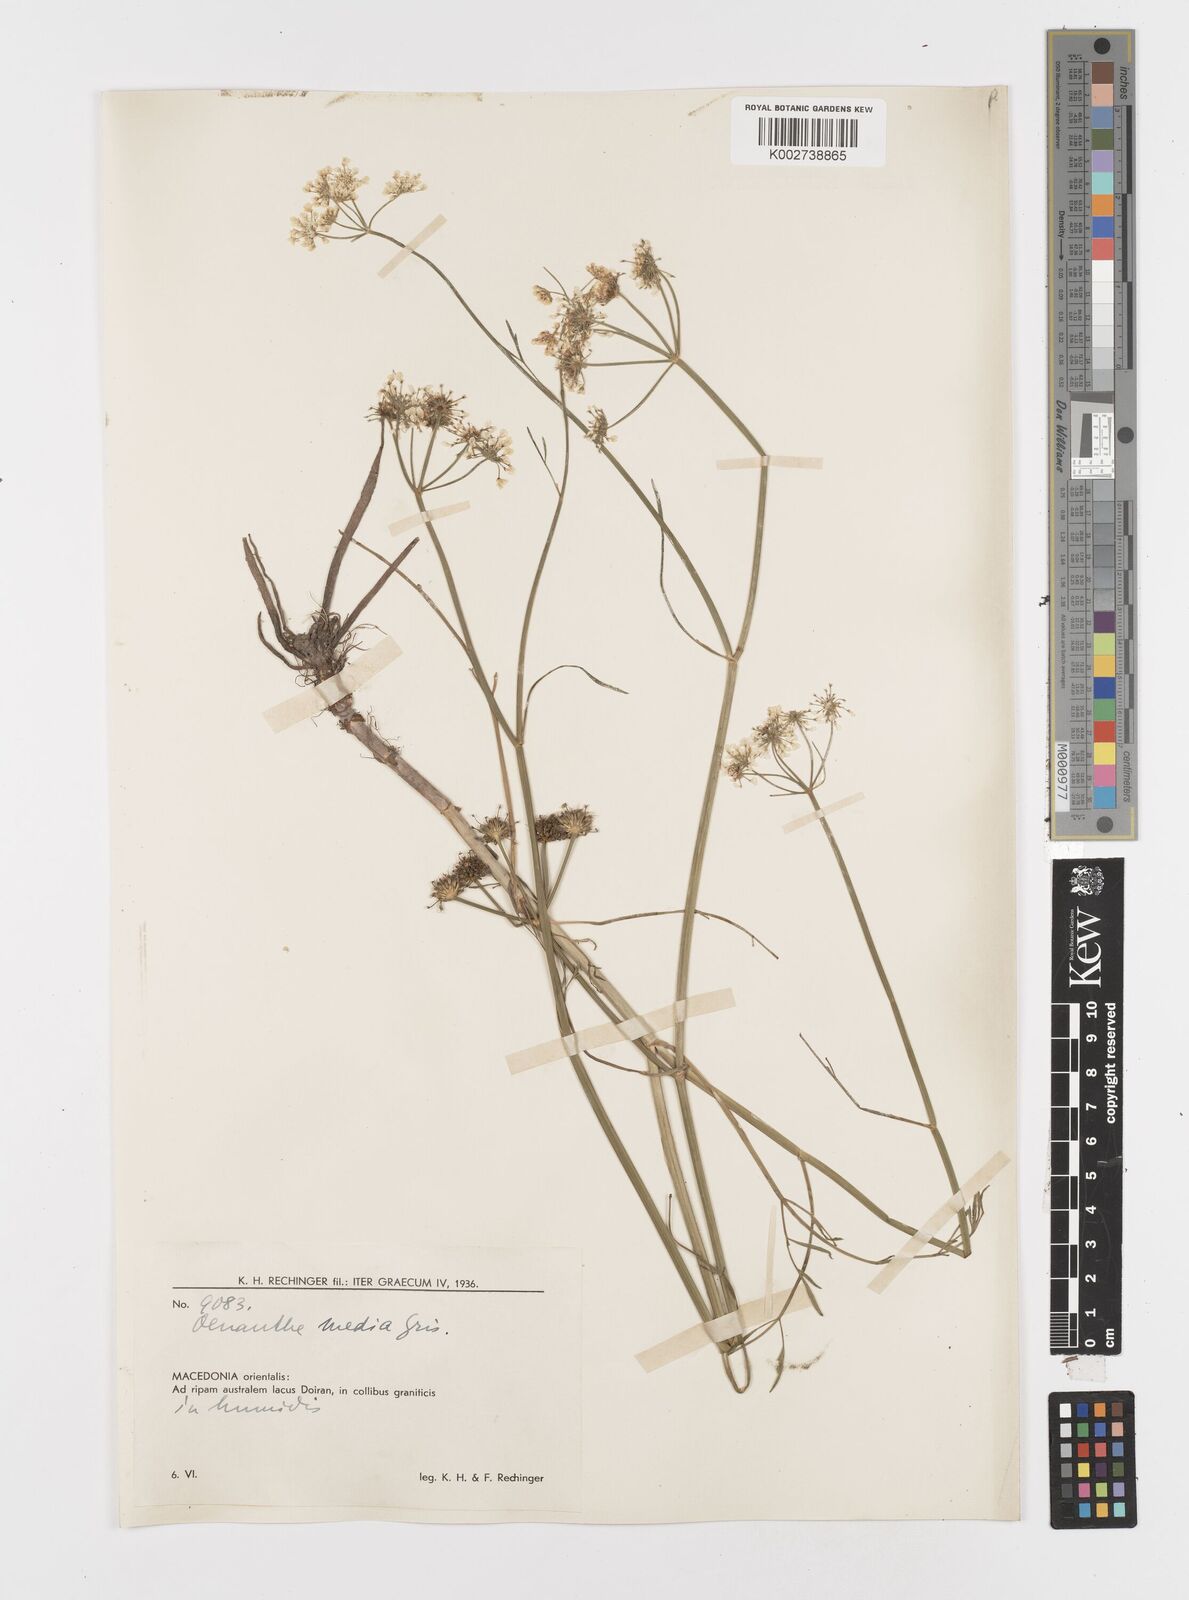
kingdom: Plantae
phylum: Tracheophyta
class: Magnoliopsida
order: Apiales
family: Apiaceae
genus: Oenanthe
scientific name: Oenanthe silaifolia
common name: Narrow-leaved water-dropwort
